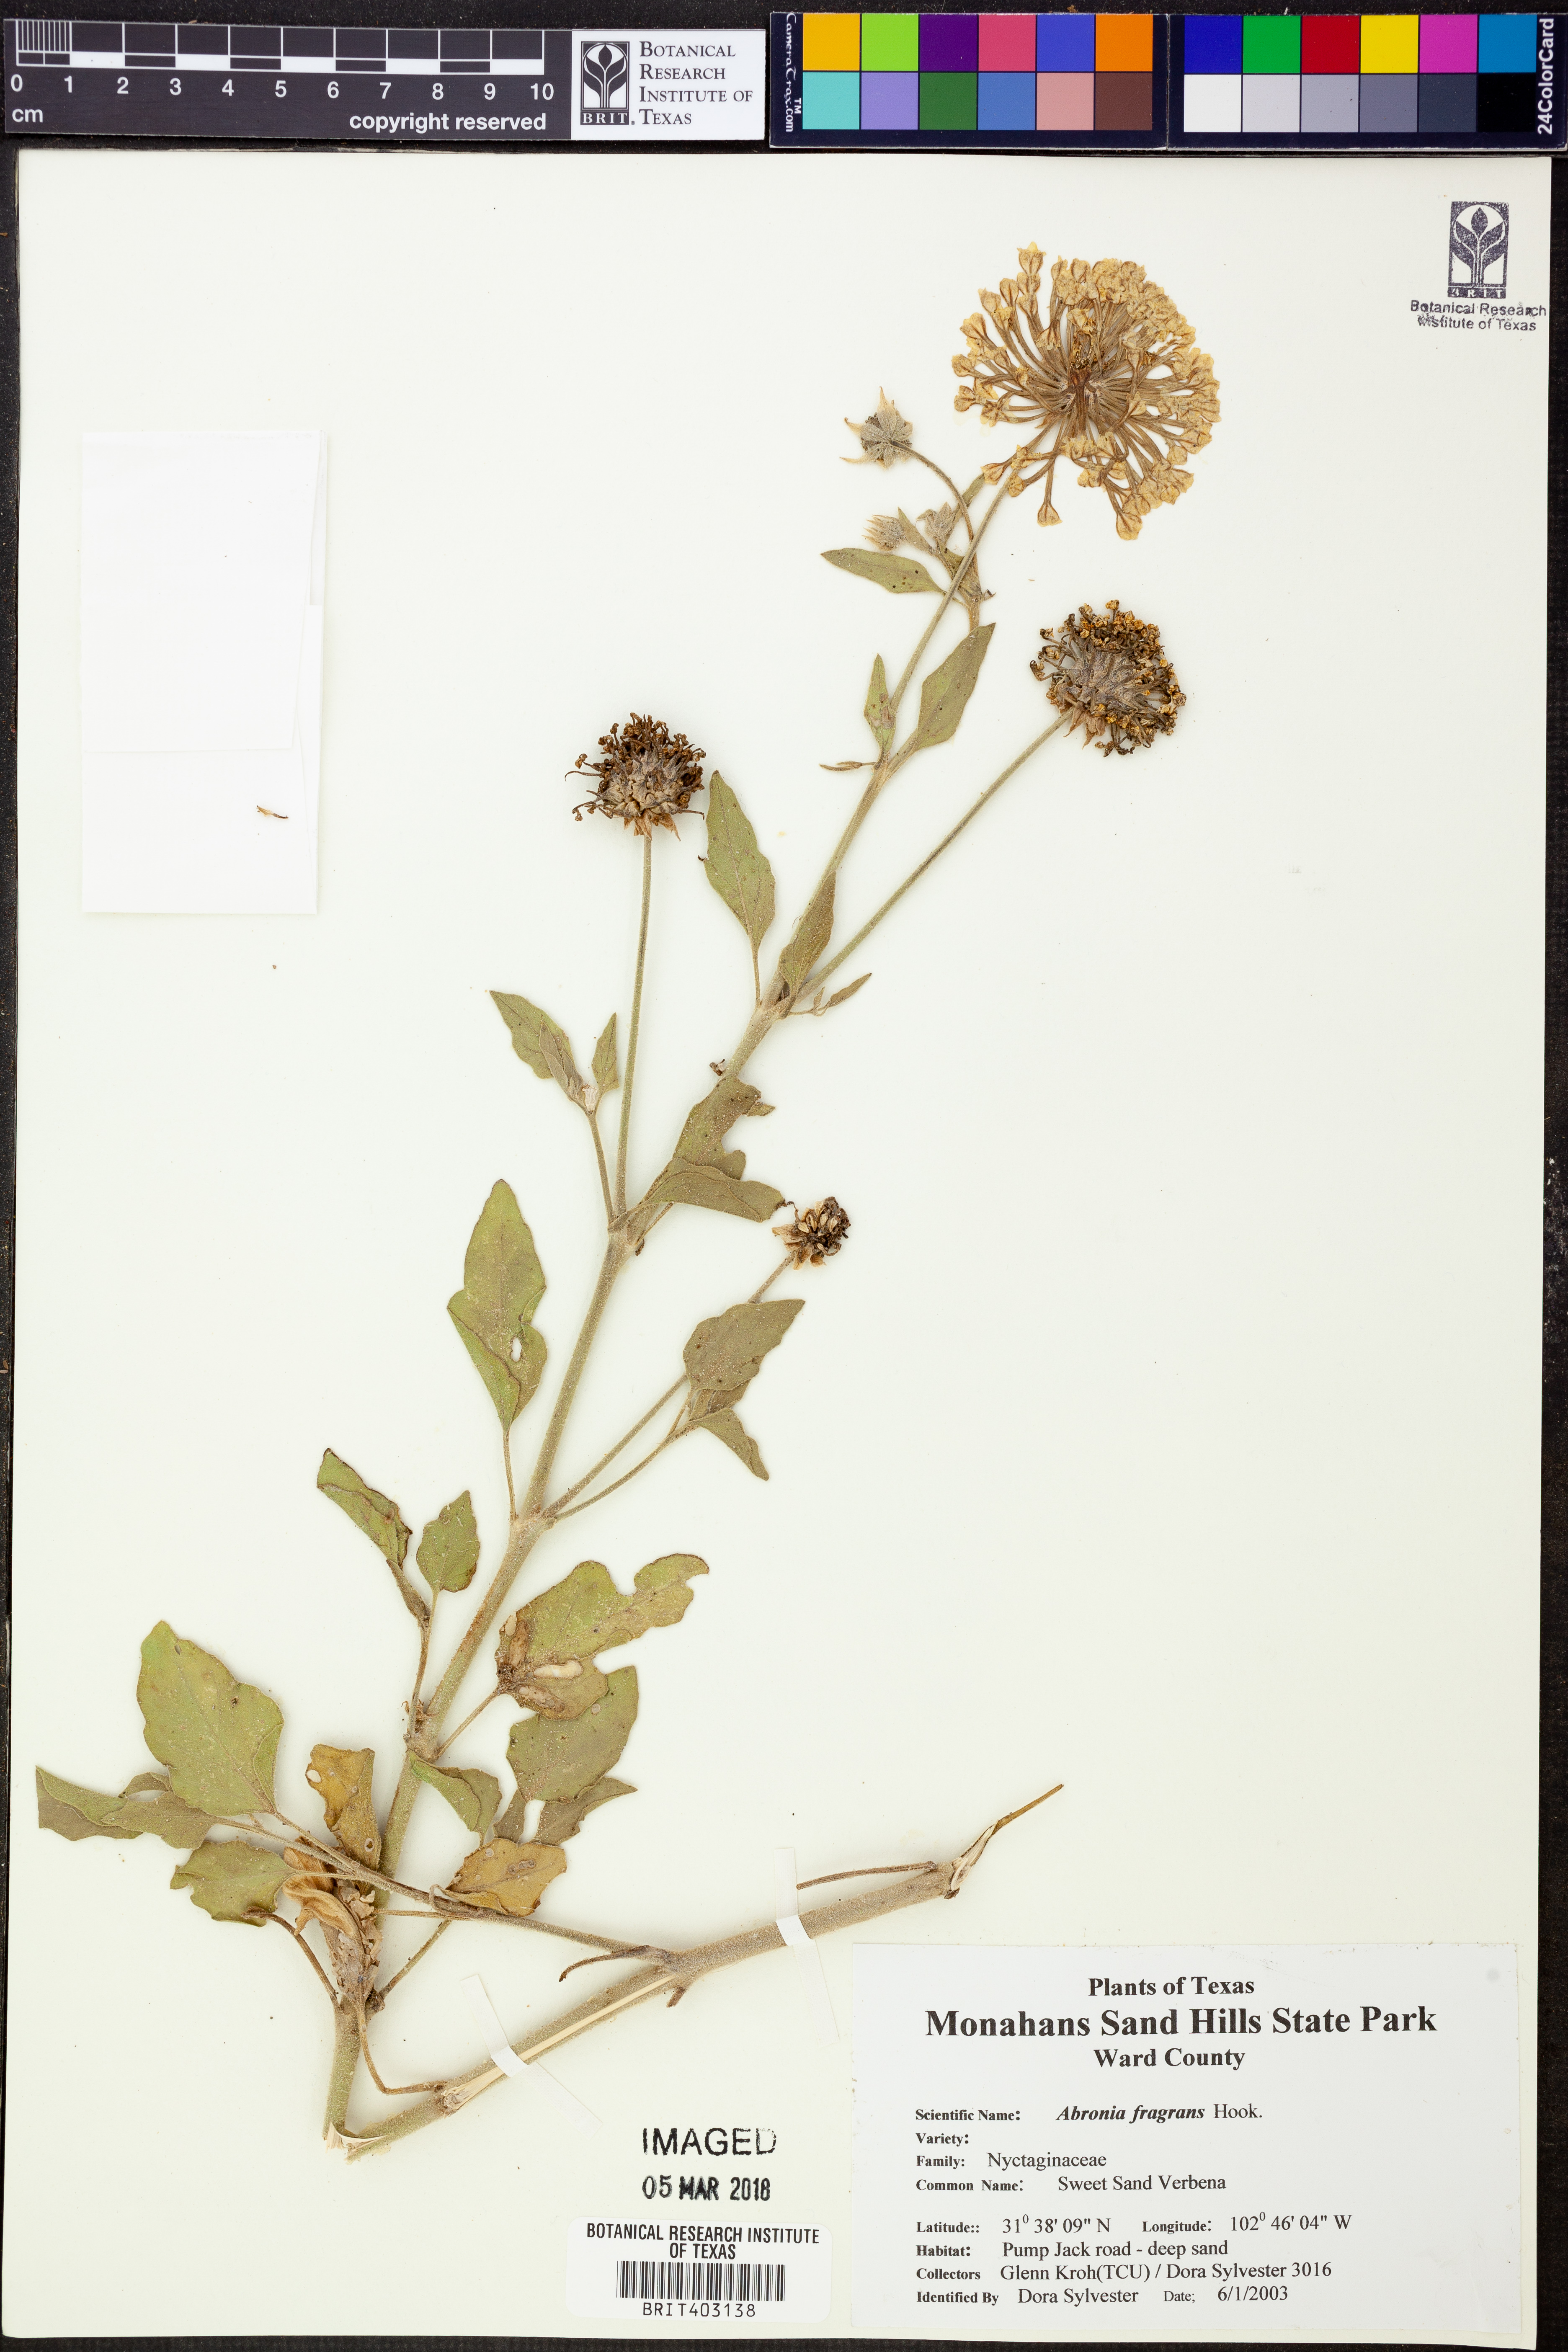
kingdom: Plantae
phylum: Tracheophyta
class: Magnoliopsida
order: Caryophyllales
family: Nyctaginaceae
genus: Abronia
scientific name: Abronia fragrans
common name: Fragrant sand-verbena
